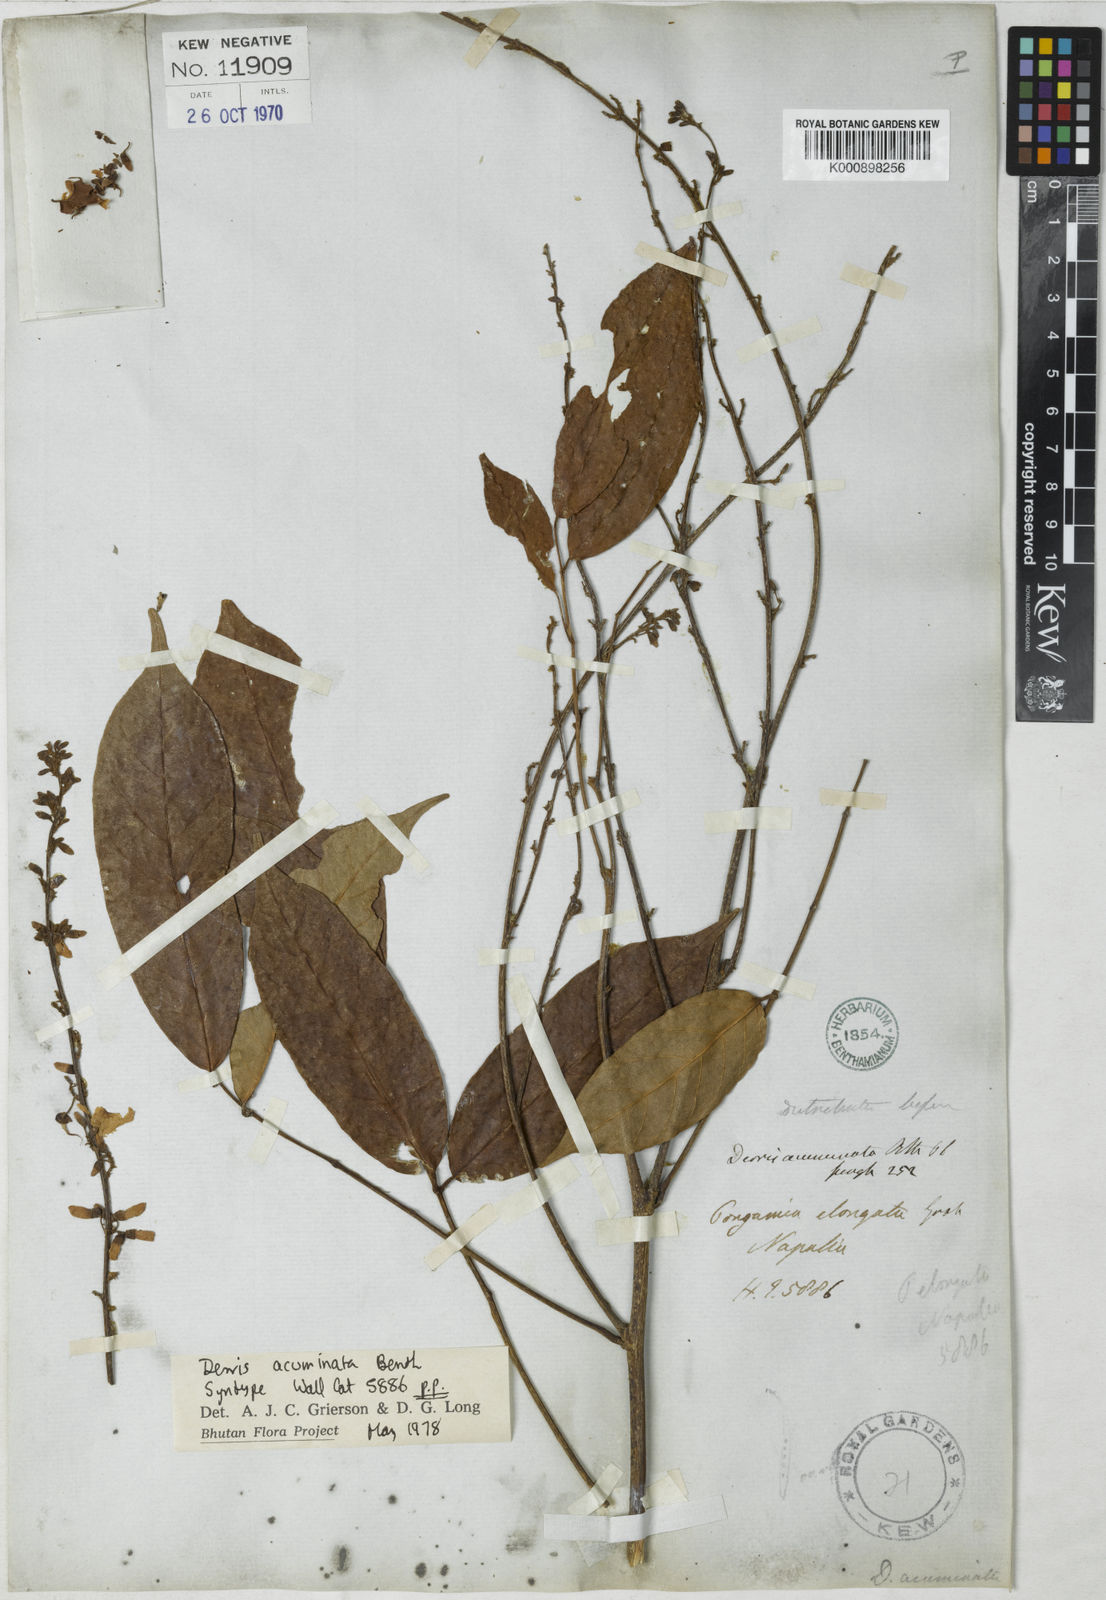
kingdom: Plantae
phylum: Tracheophyta
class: Magnoliopsida
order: Fabales
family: Fabaceae
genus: Derris
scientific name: Derris acuminata
